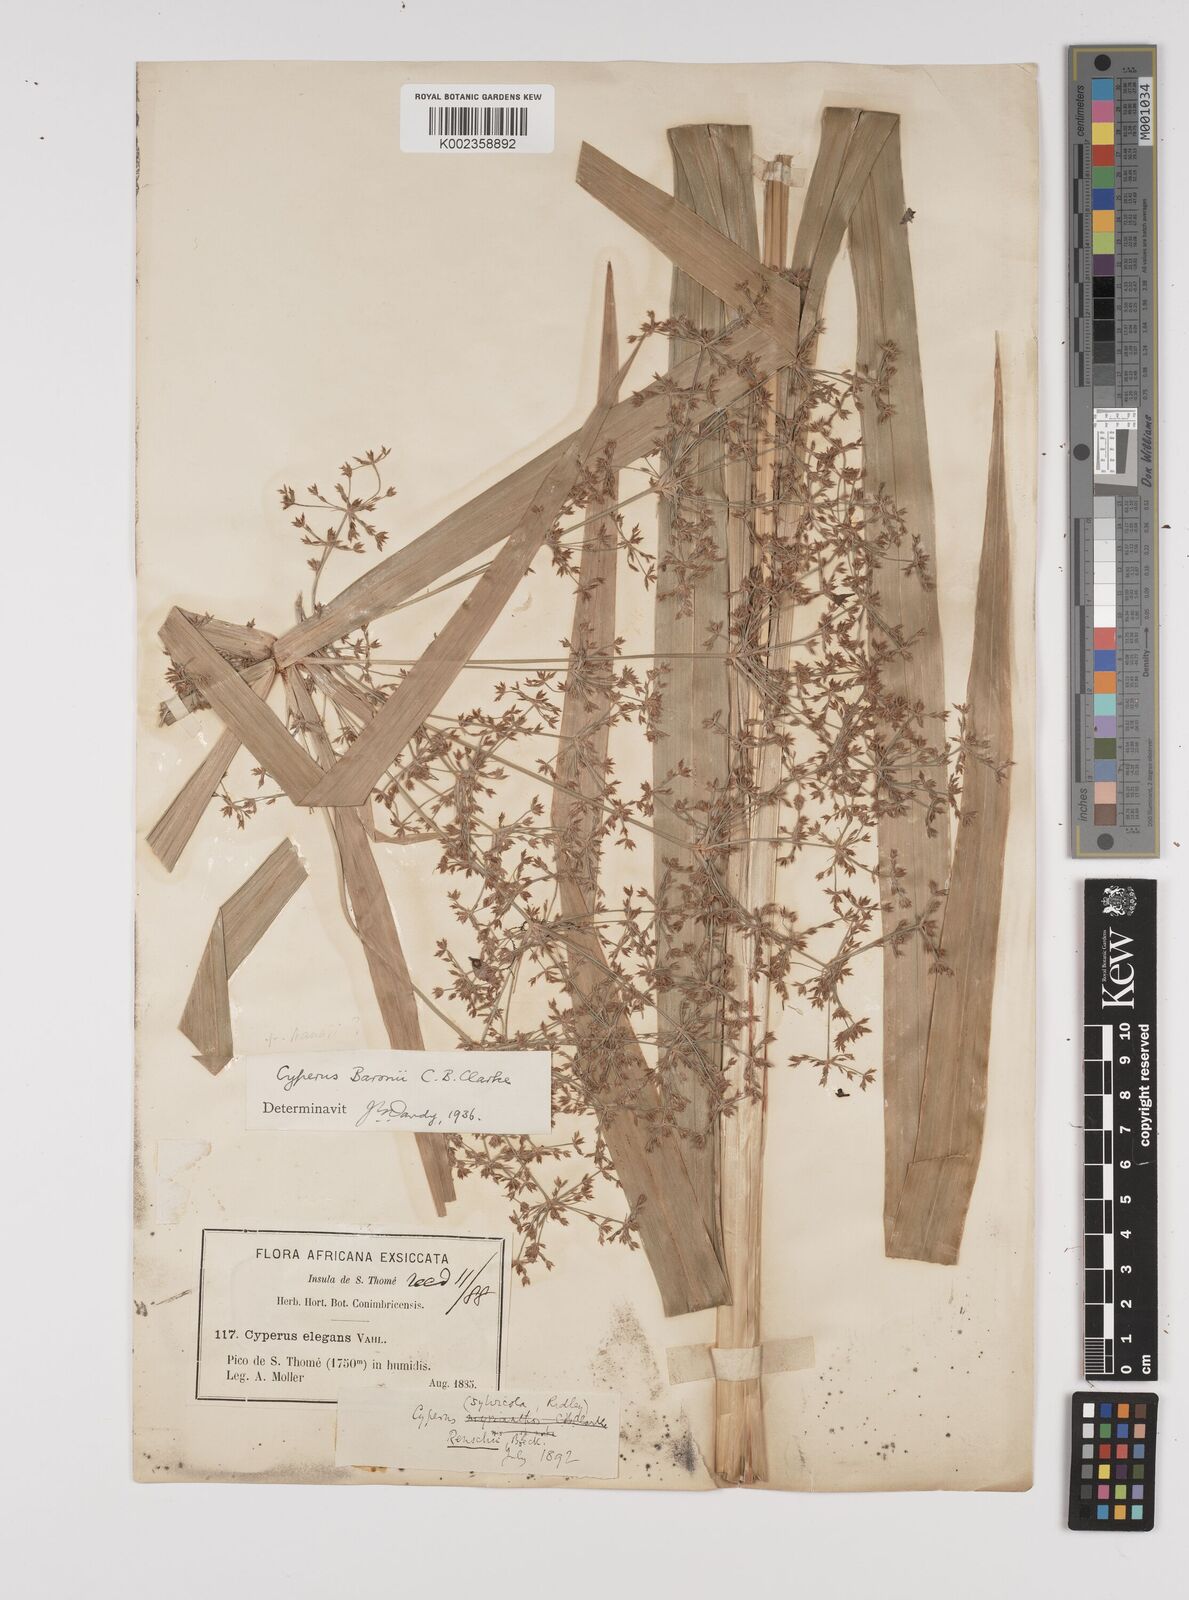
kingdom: Plantae
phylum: Tracheophyta
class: Liliopsida
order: Poales
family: Cyperaceae
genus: Cyperus
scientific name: Cyperus renschii
